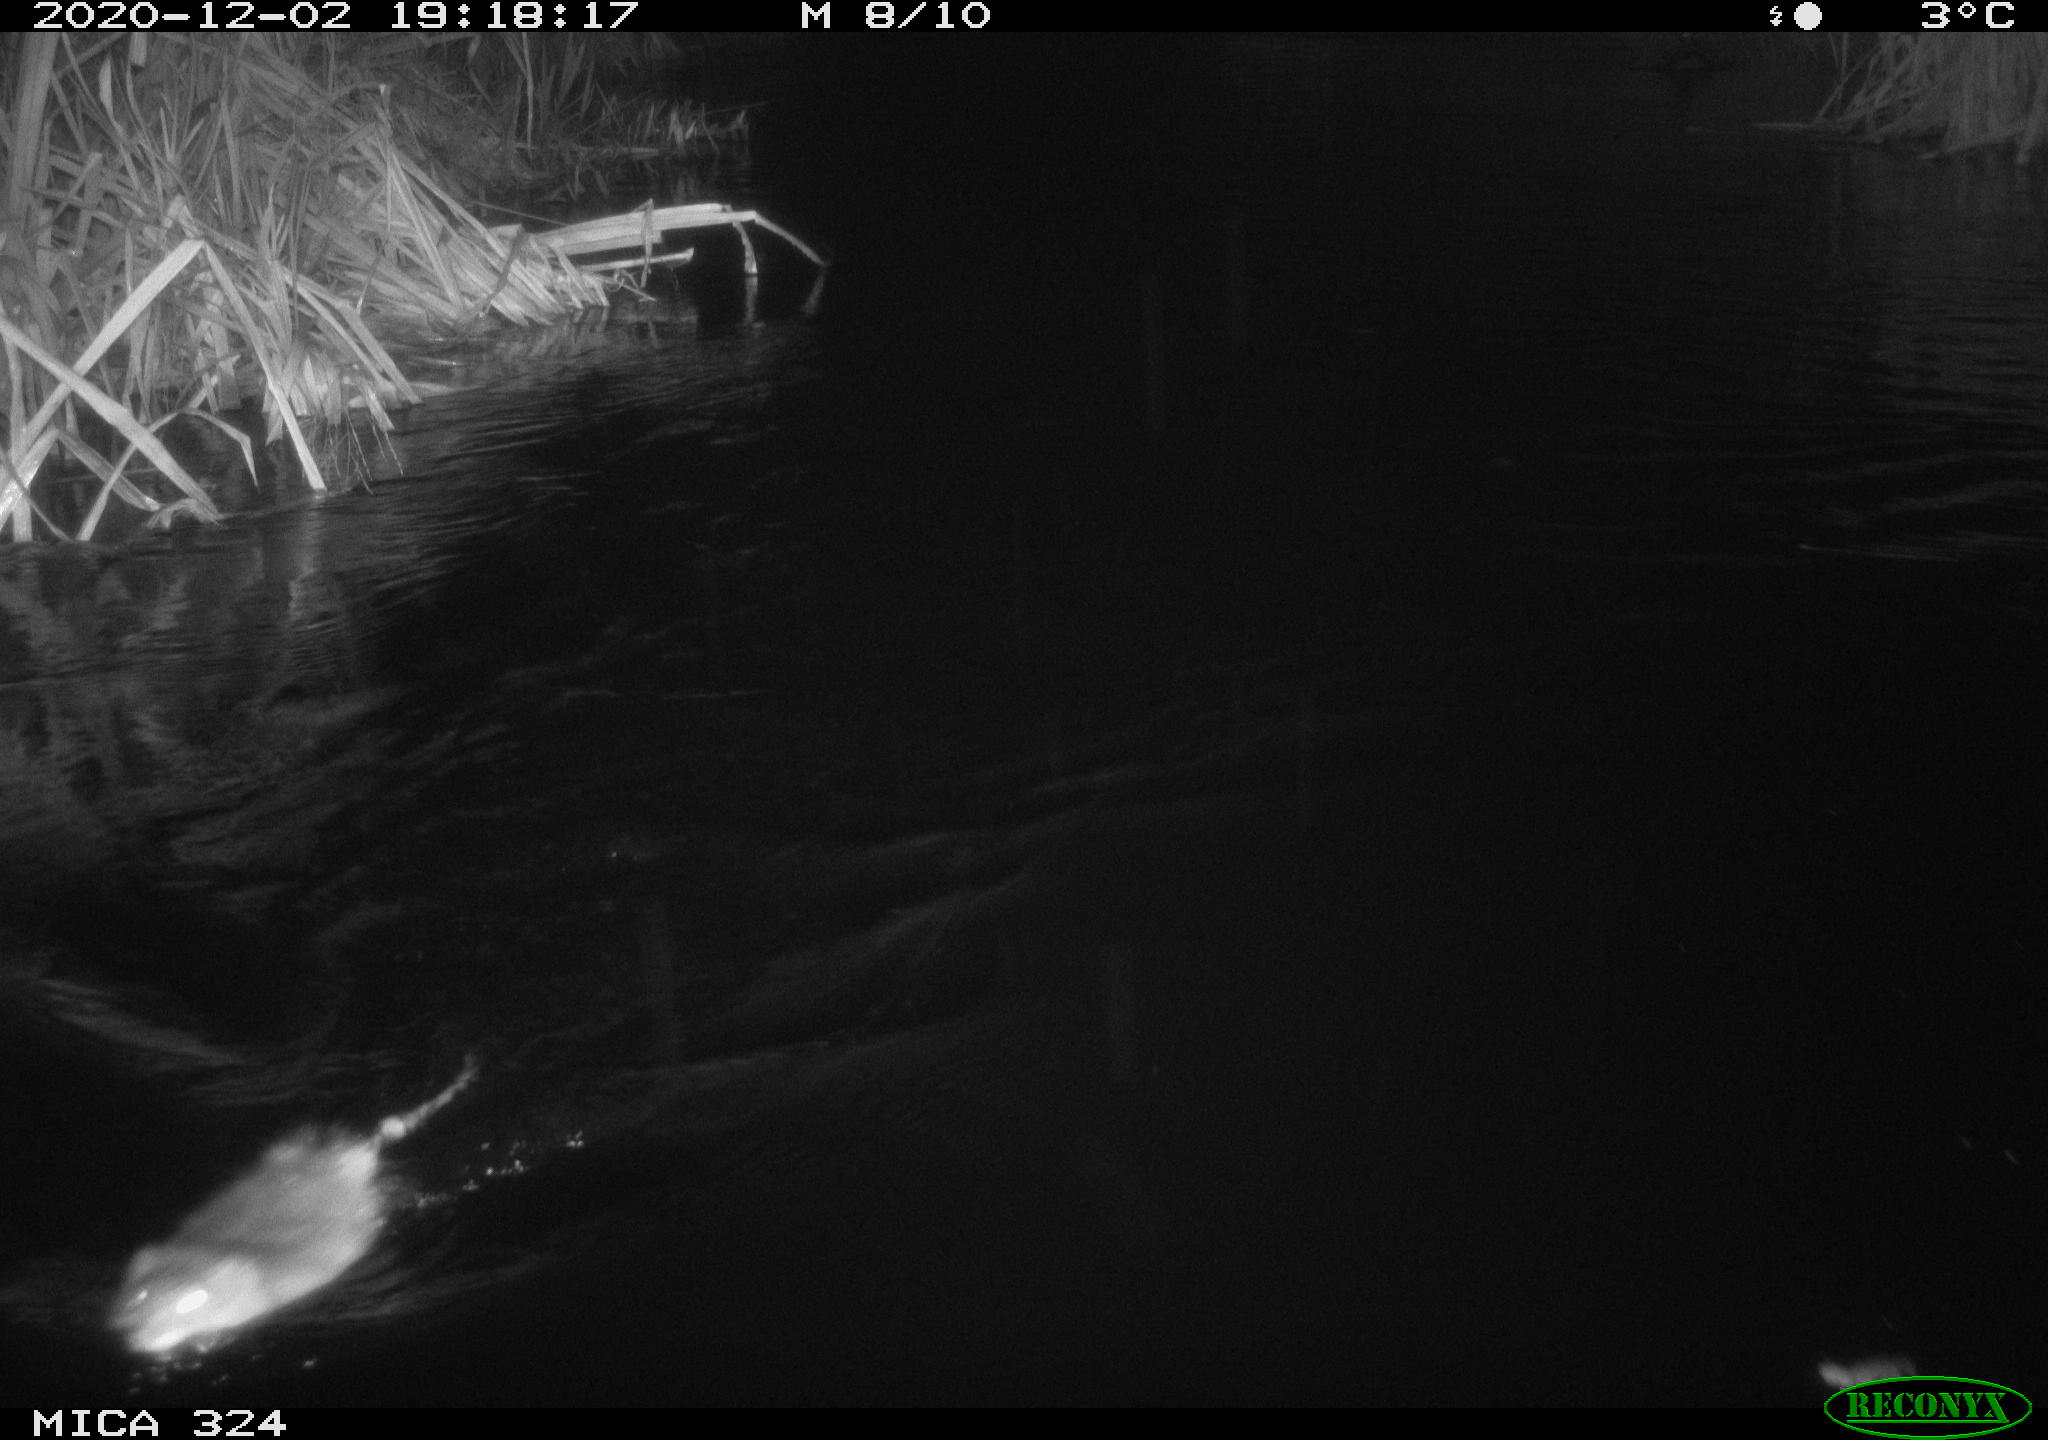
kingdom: Animalia
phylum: Chordata
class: Mammalia
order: Rodentia
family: Cricetidae
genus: Ondatra
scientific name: Ondatra zibethicus
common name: Muskrat
